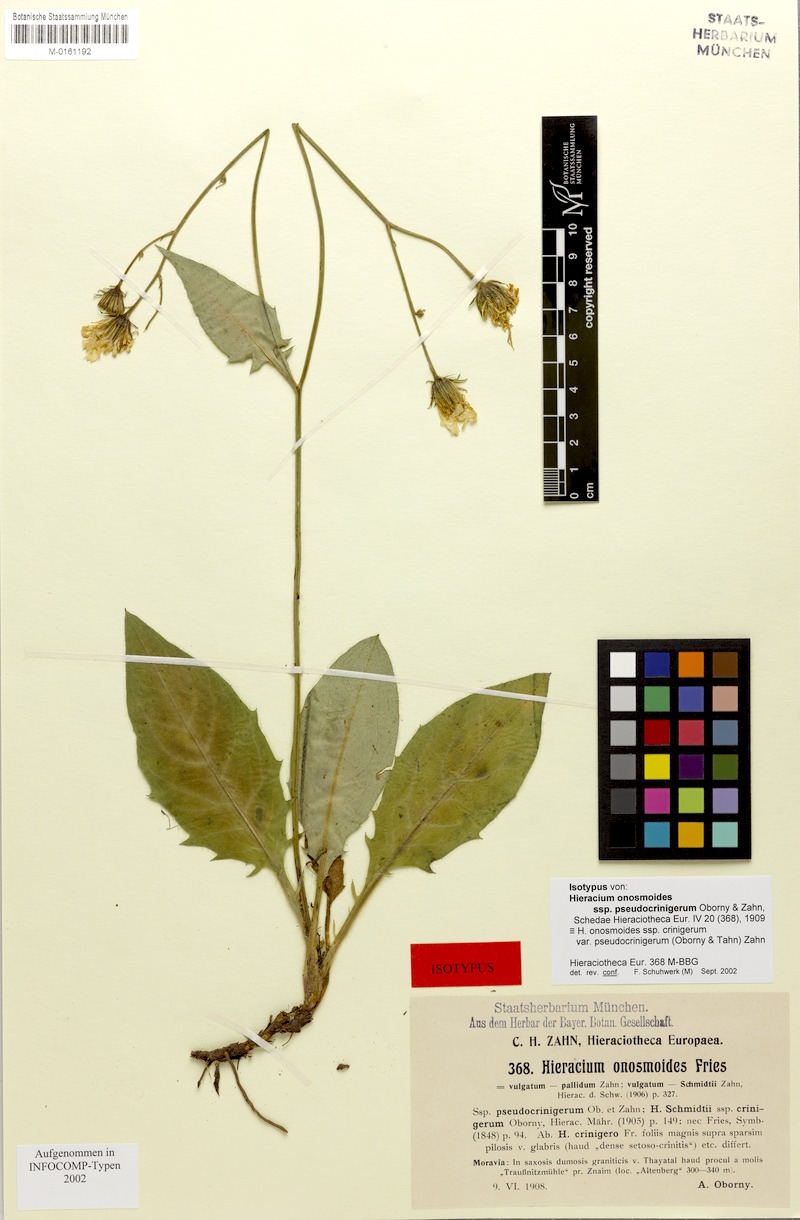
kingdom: Plantae
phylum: Tracheophyta
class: Magnoliopsida
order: Asterales
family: Asteraceae
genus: Hieracium
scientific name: Hieracium onosmoides
